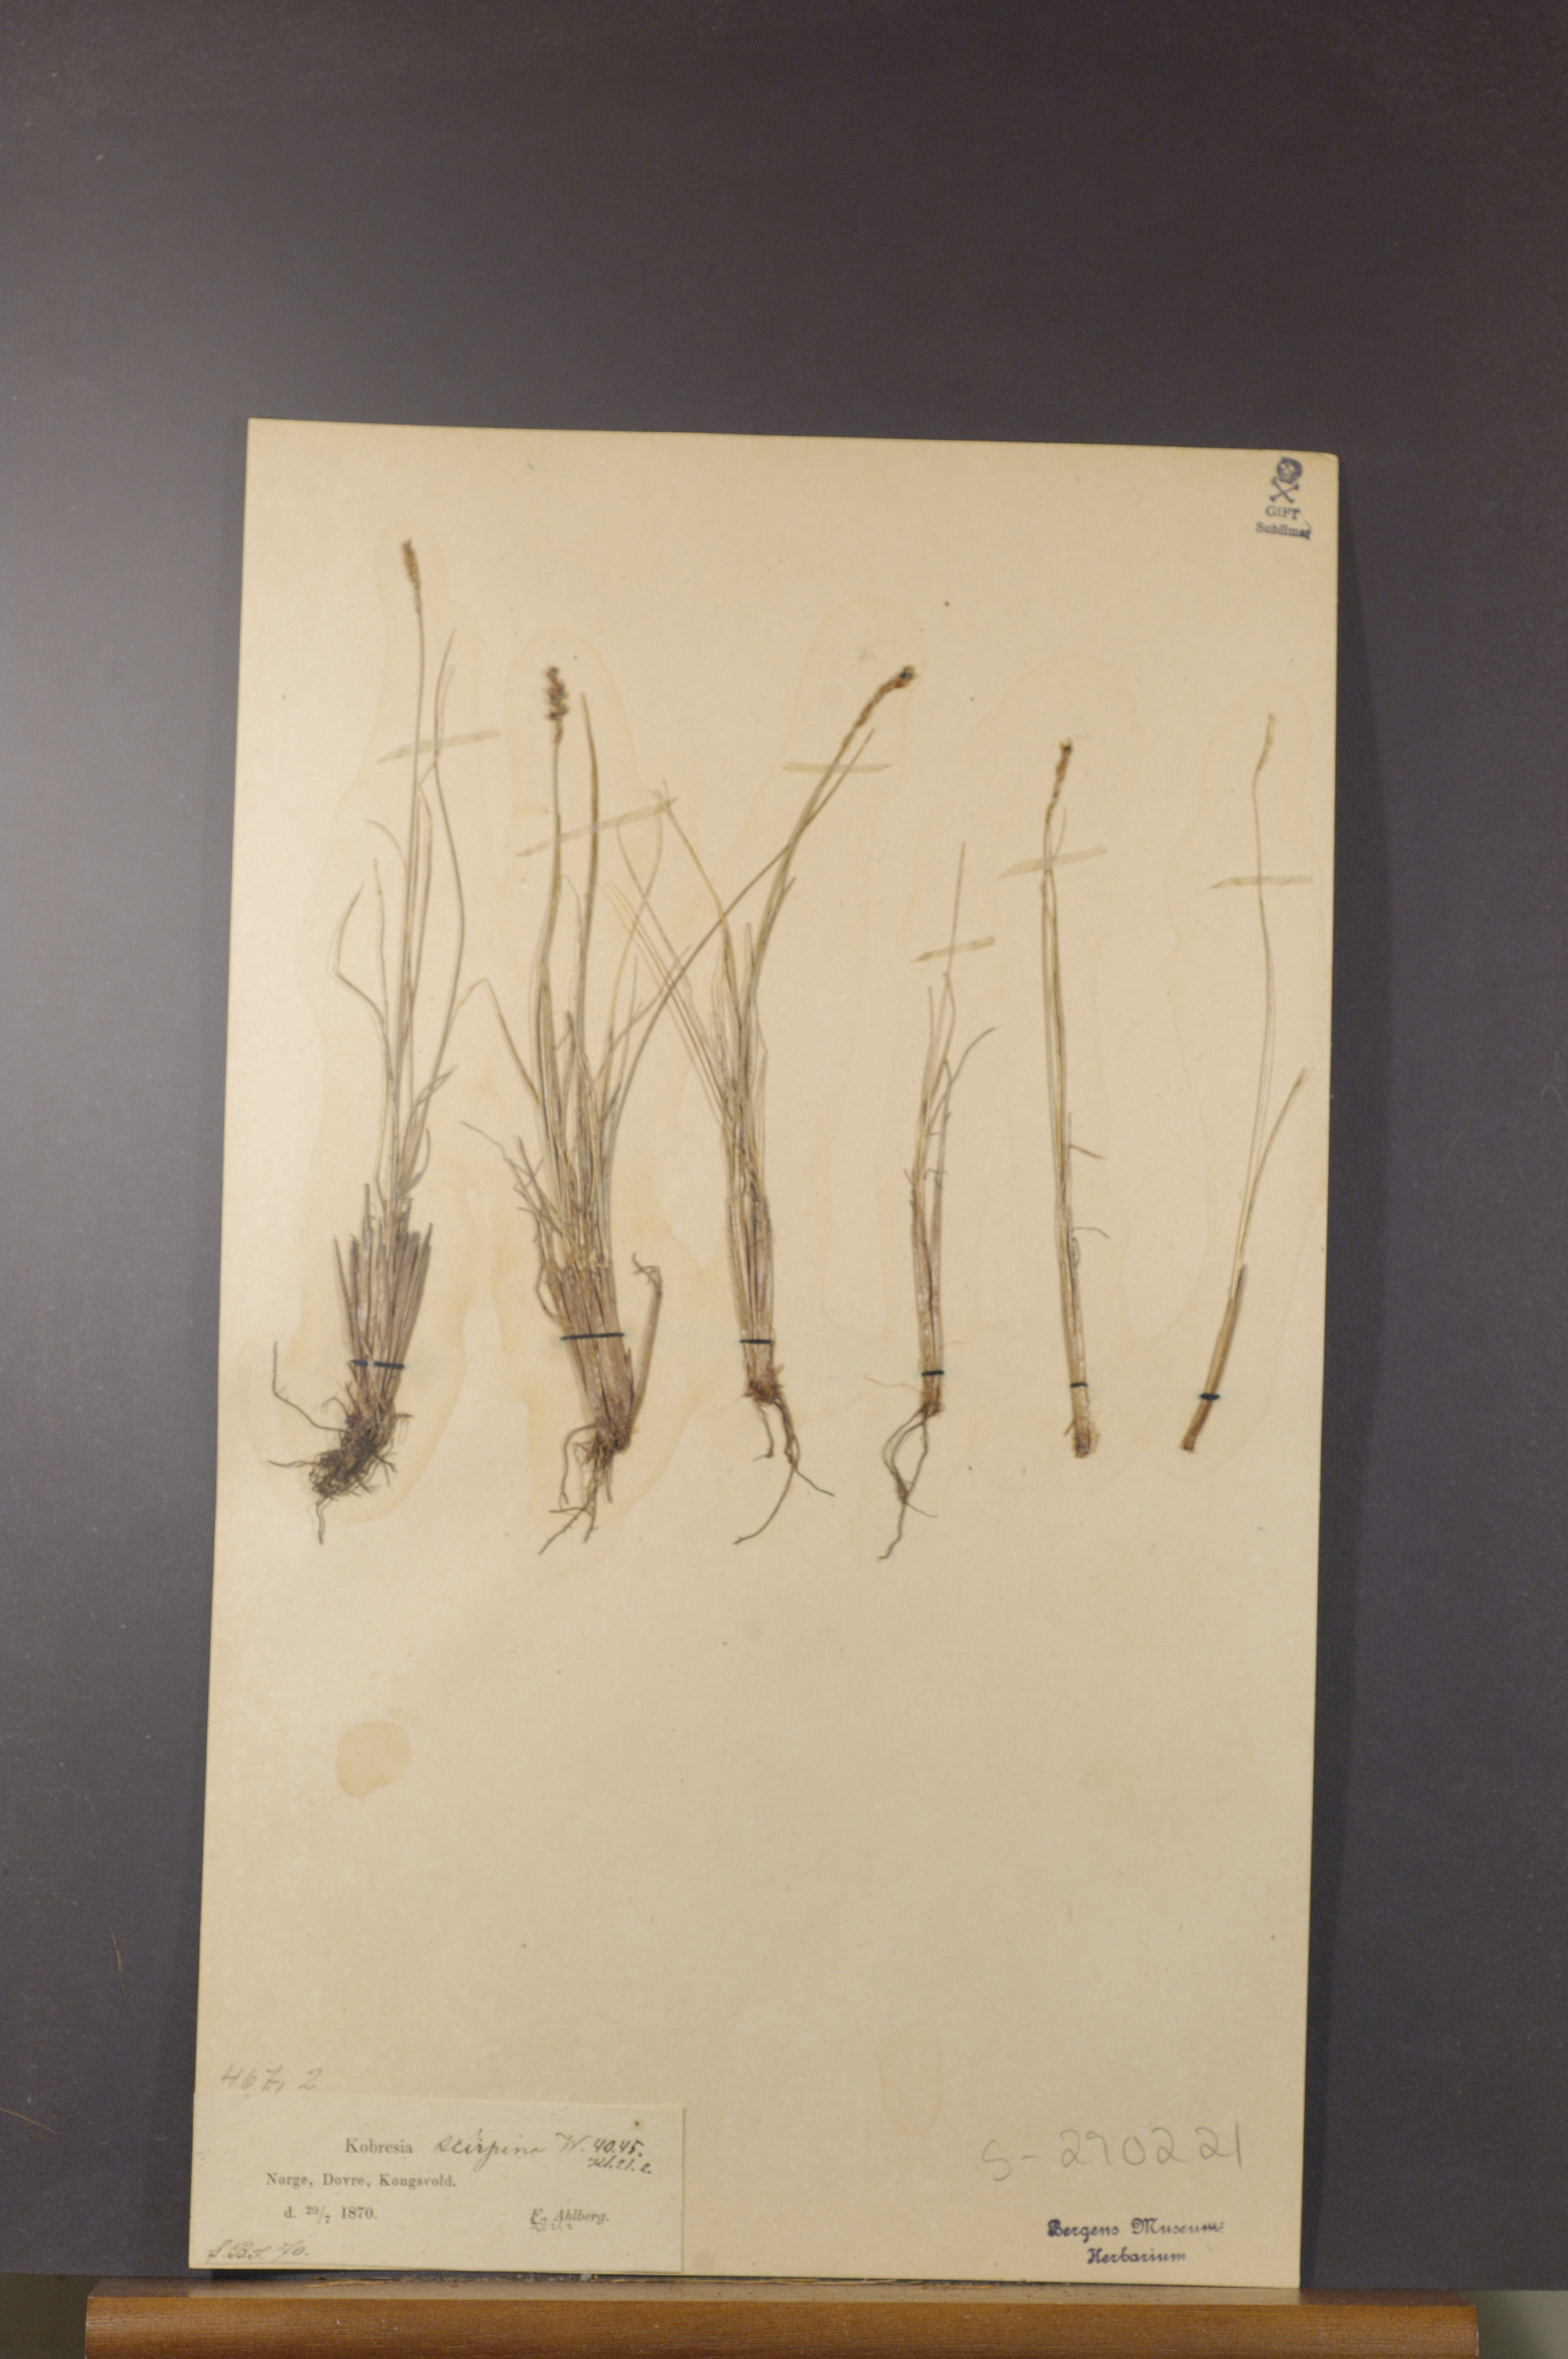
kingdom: Plantae
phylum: Tracheophyta
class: Liliopsida
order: Poales
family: Cyperaceae
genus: Carex
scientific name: Carex myosuroides
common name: Bellard's bog sedge
